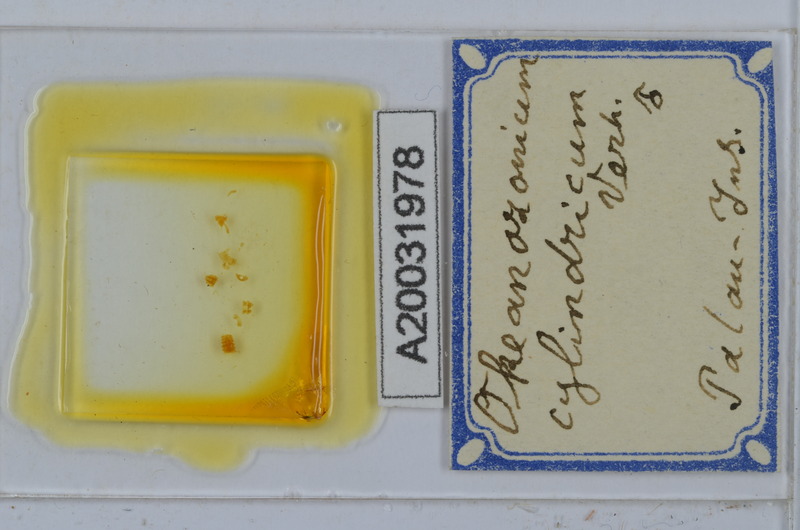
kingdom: Animalia
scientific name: Animalia
